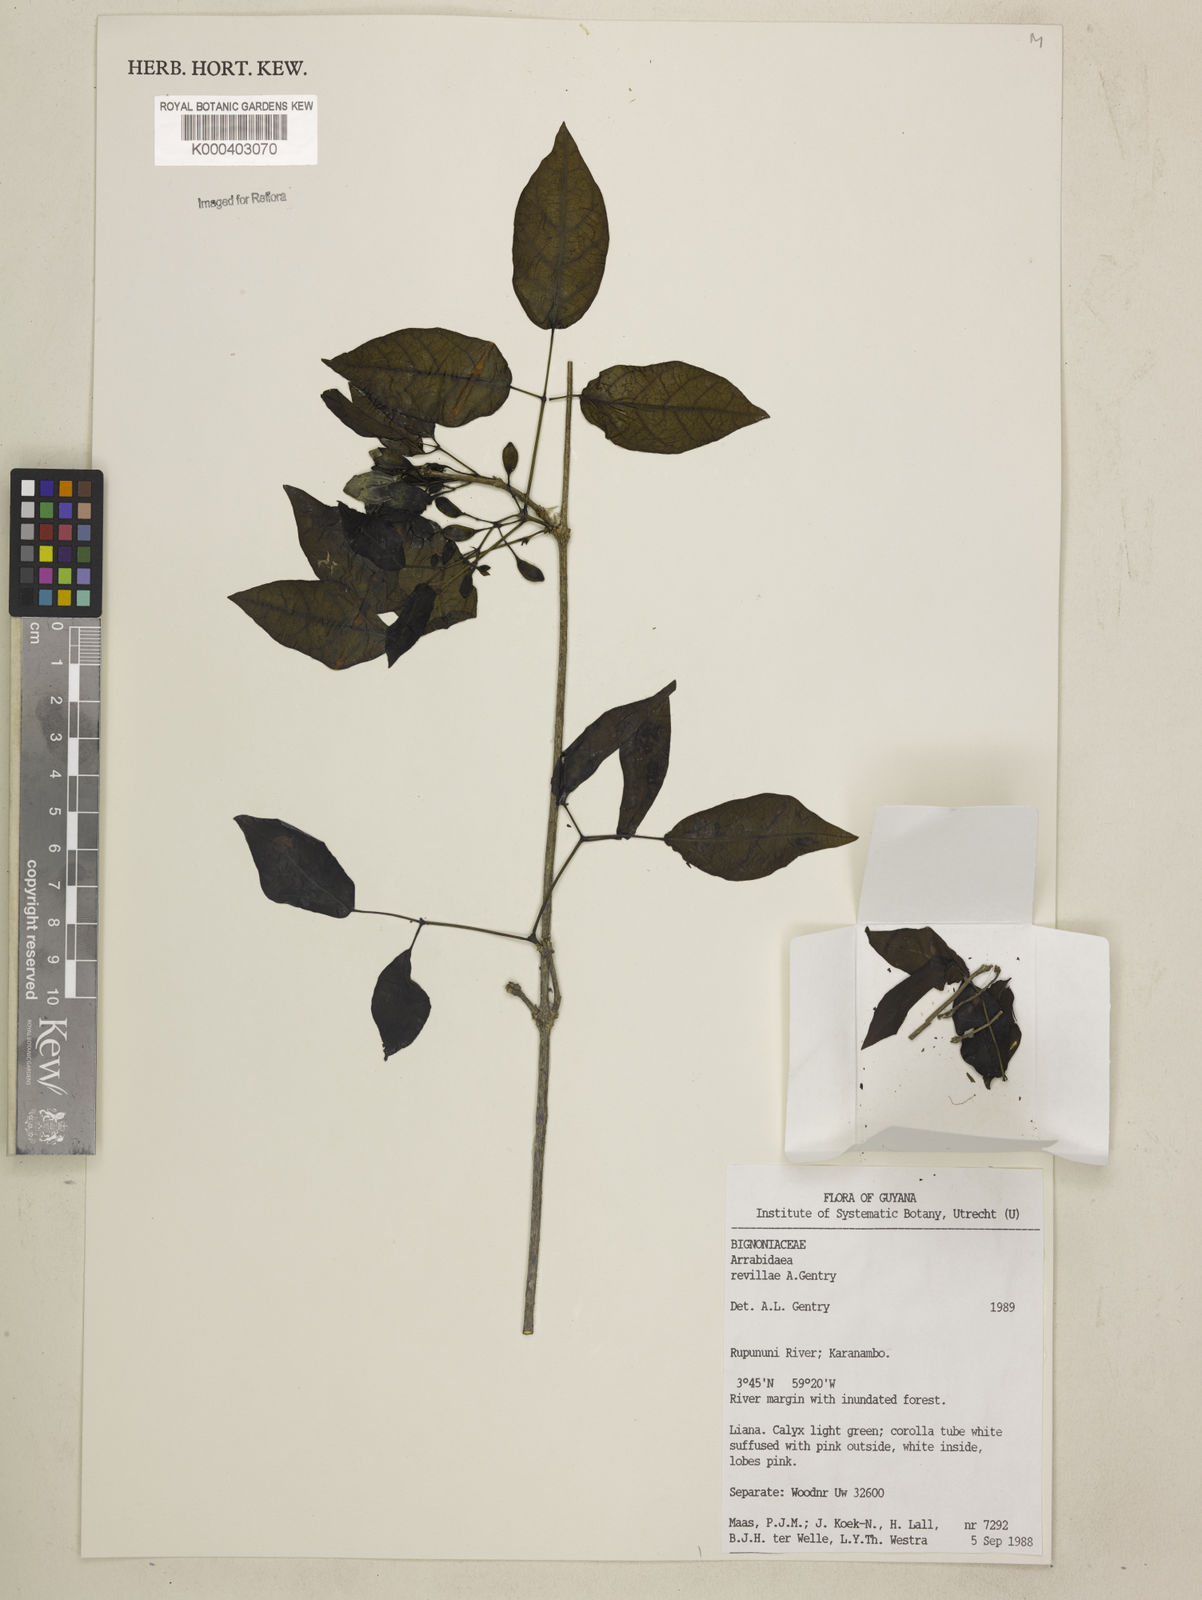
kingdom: Plantae
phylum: Tracheophyta
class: Magnoliopsida
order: Lamiales
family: Bignoniaceae
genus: Tanaecium
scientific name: Tanaecium revillae
